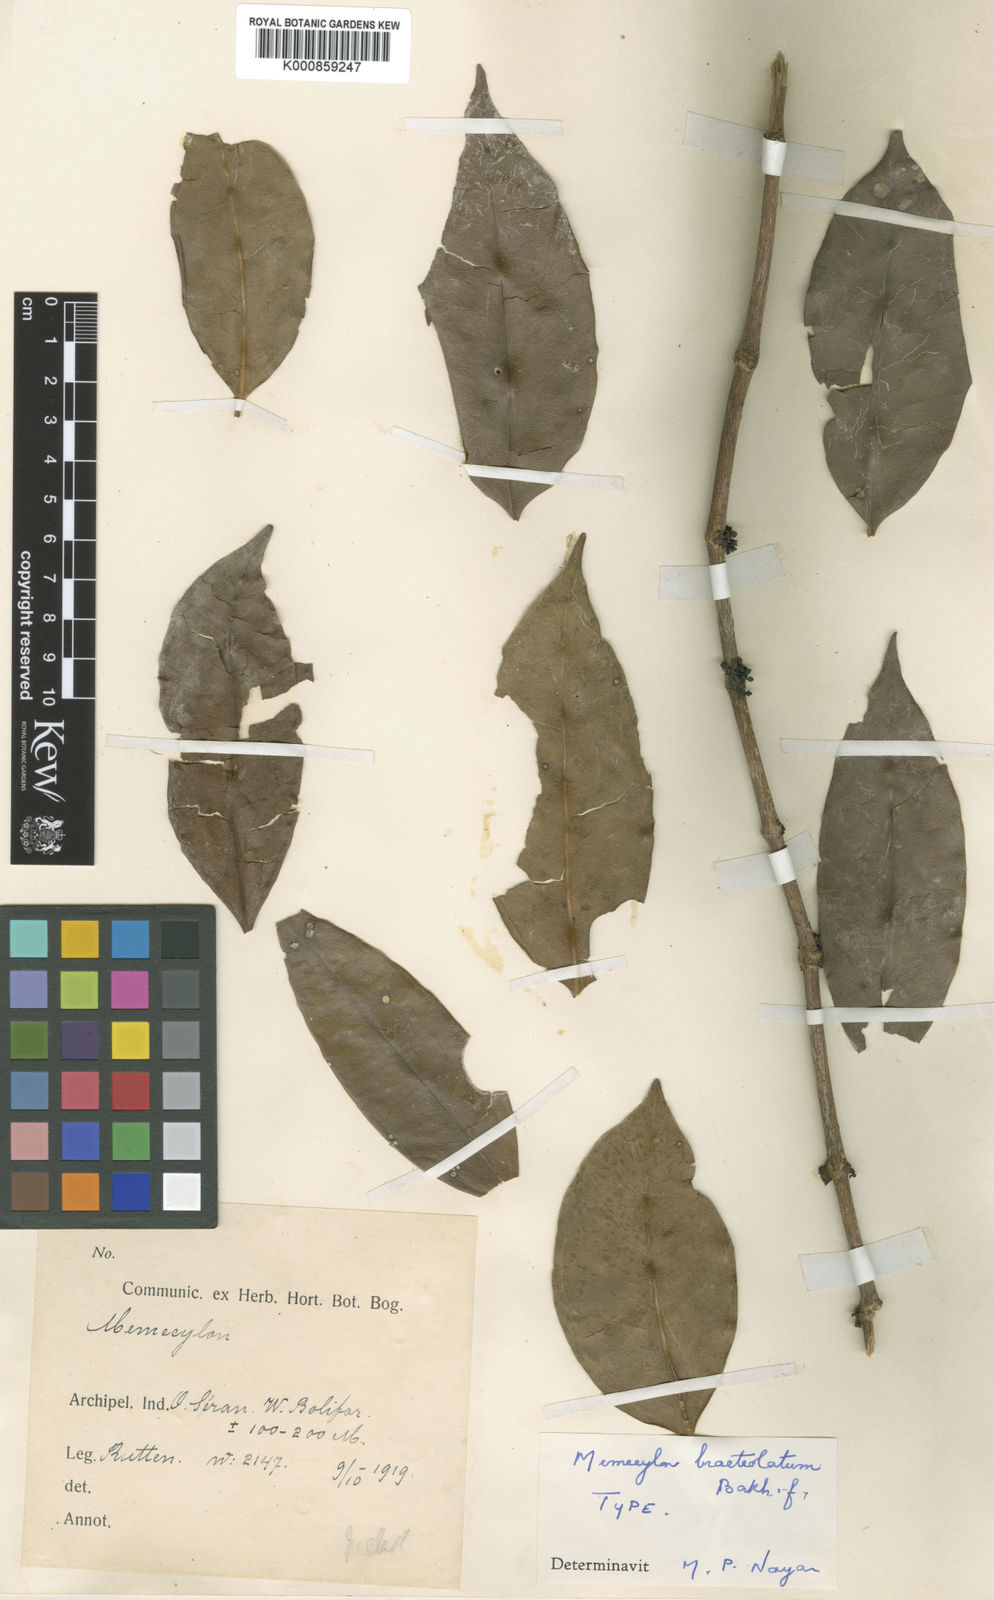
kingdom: Plantae
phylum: Tracheophyta
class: Magnoliopsida
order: Myrtales
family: Melastomataceae
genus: Memecylon
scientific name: Memecylon bracteolatum
